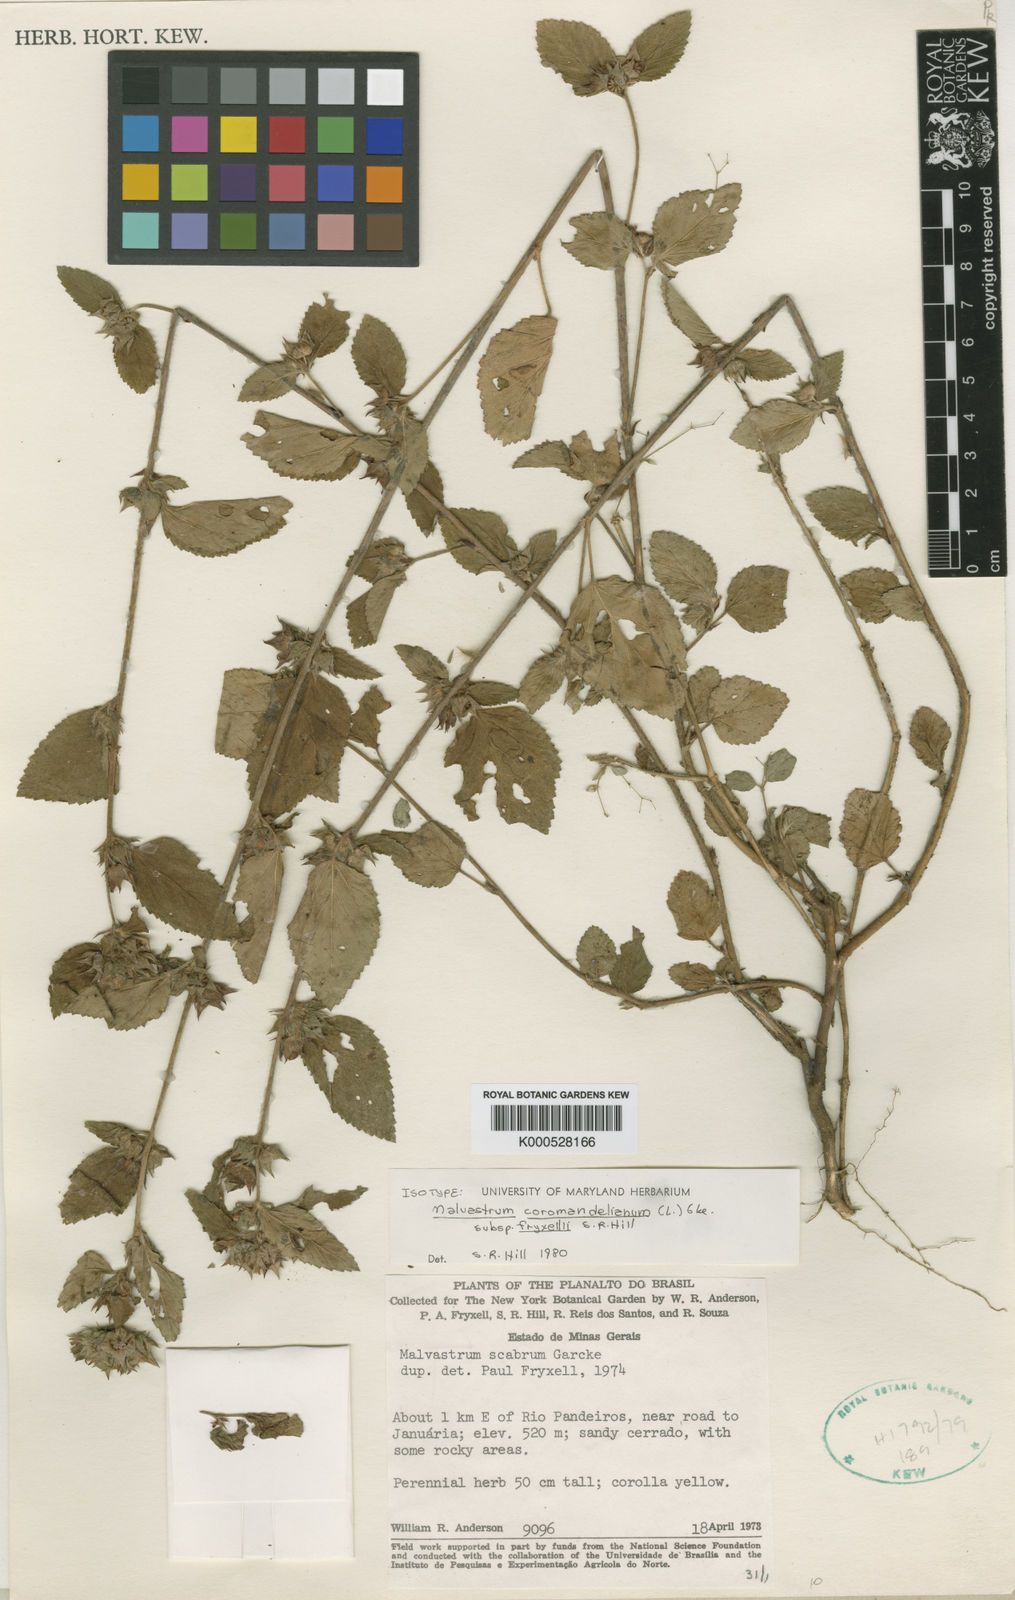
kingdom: Plantae
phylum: Tracheophyta
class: Magnoliopsida
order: Malvales
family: Malvaceae
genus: Malvastrum
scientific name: Malvastrum fryxellii
